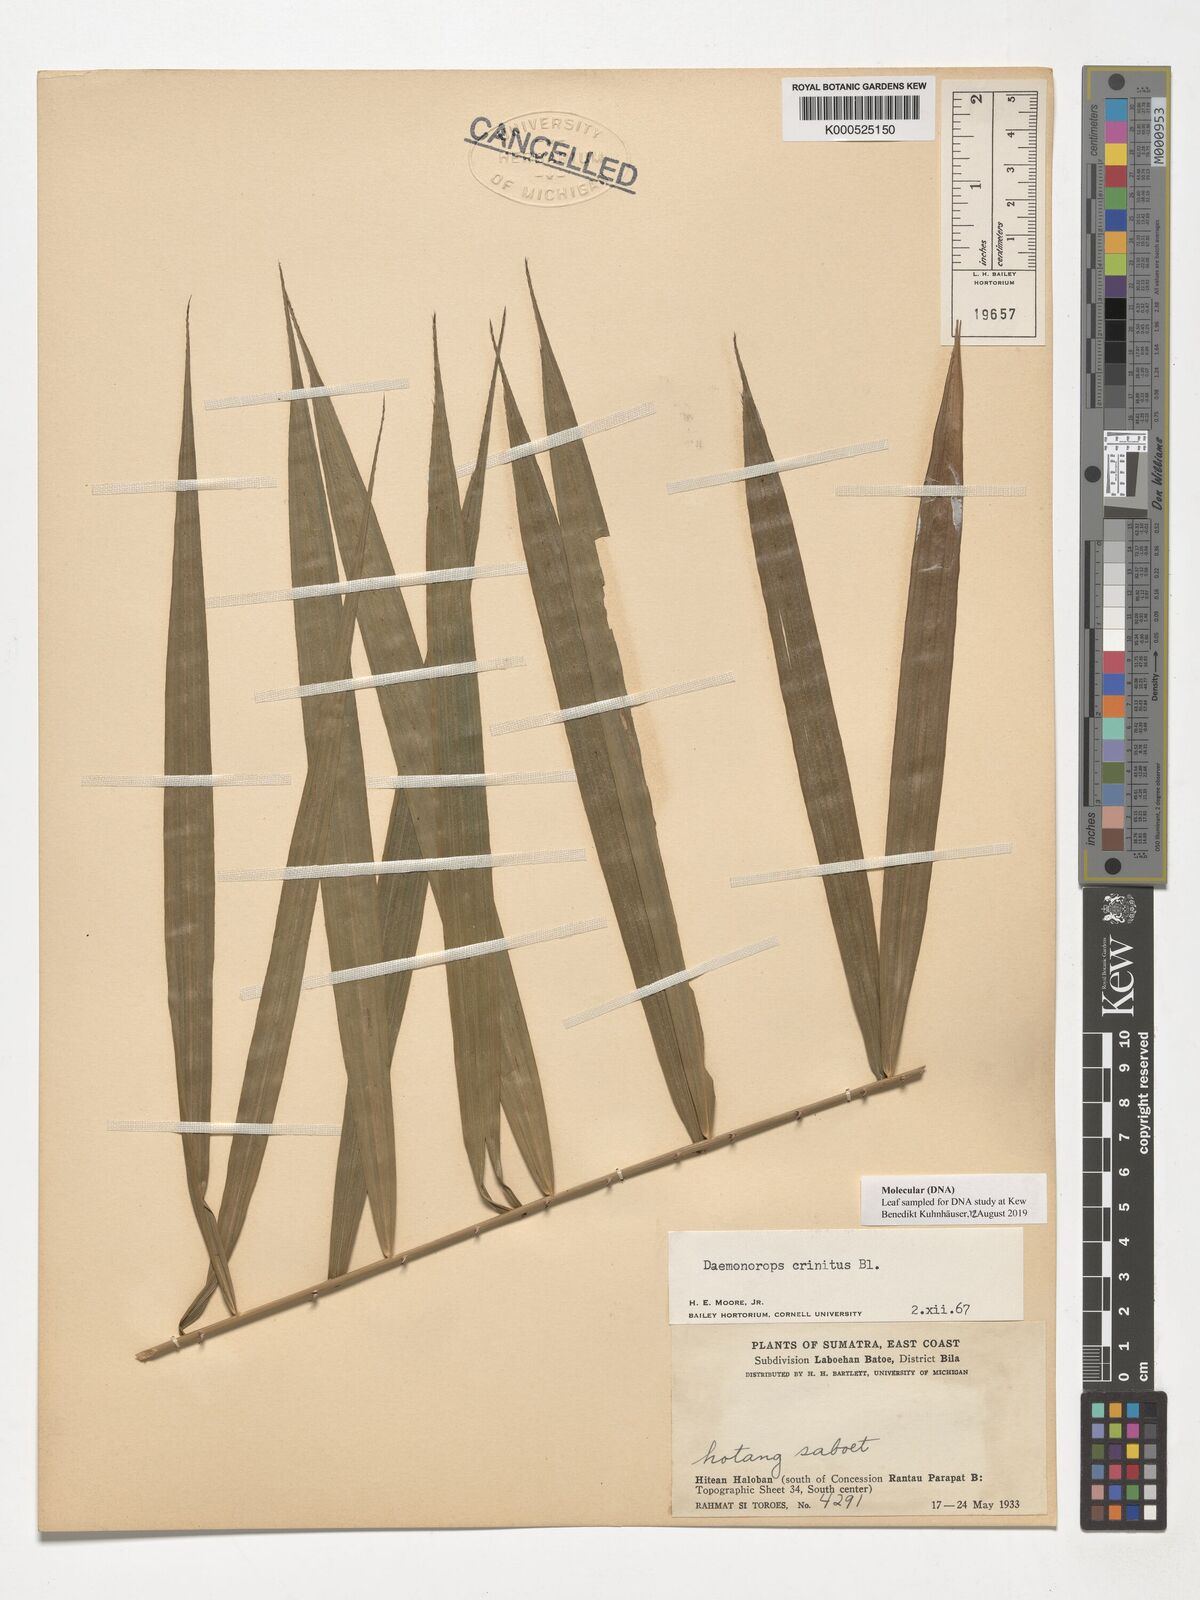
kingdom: Plantae
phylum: Tracheophyta
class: Liliopsida
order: Arecales
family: Arecaceae
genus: Calamus
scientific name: Calamus crinitus
